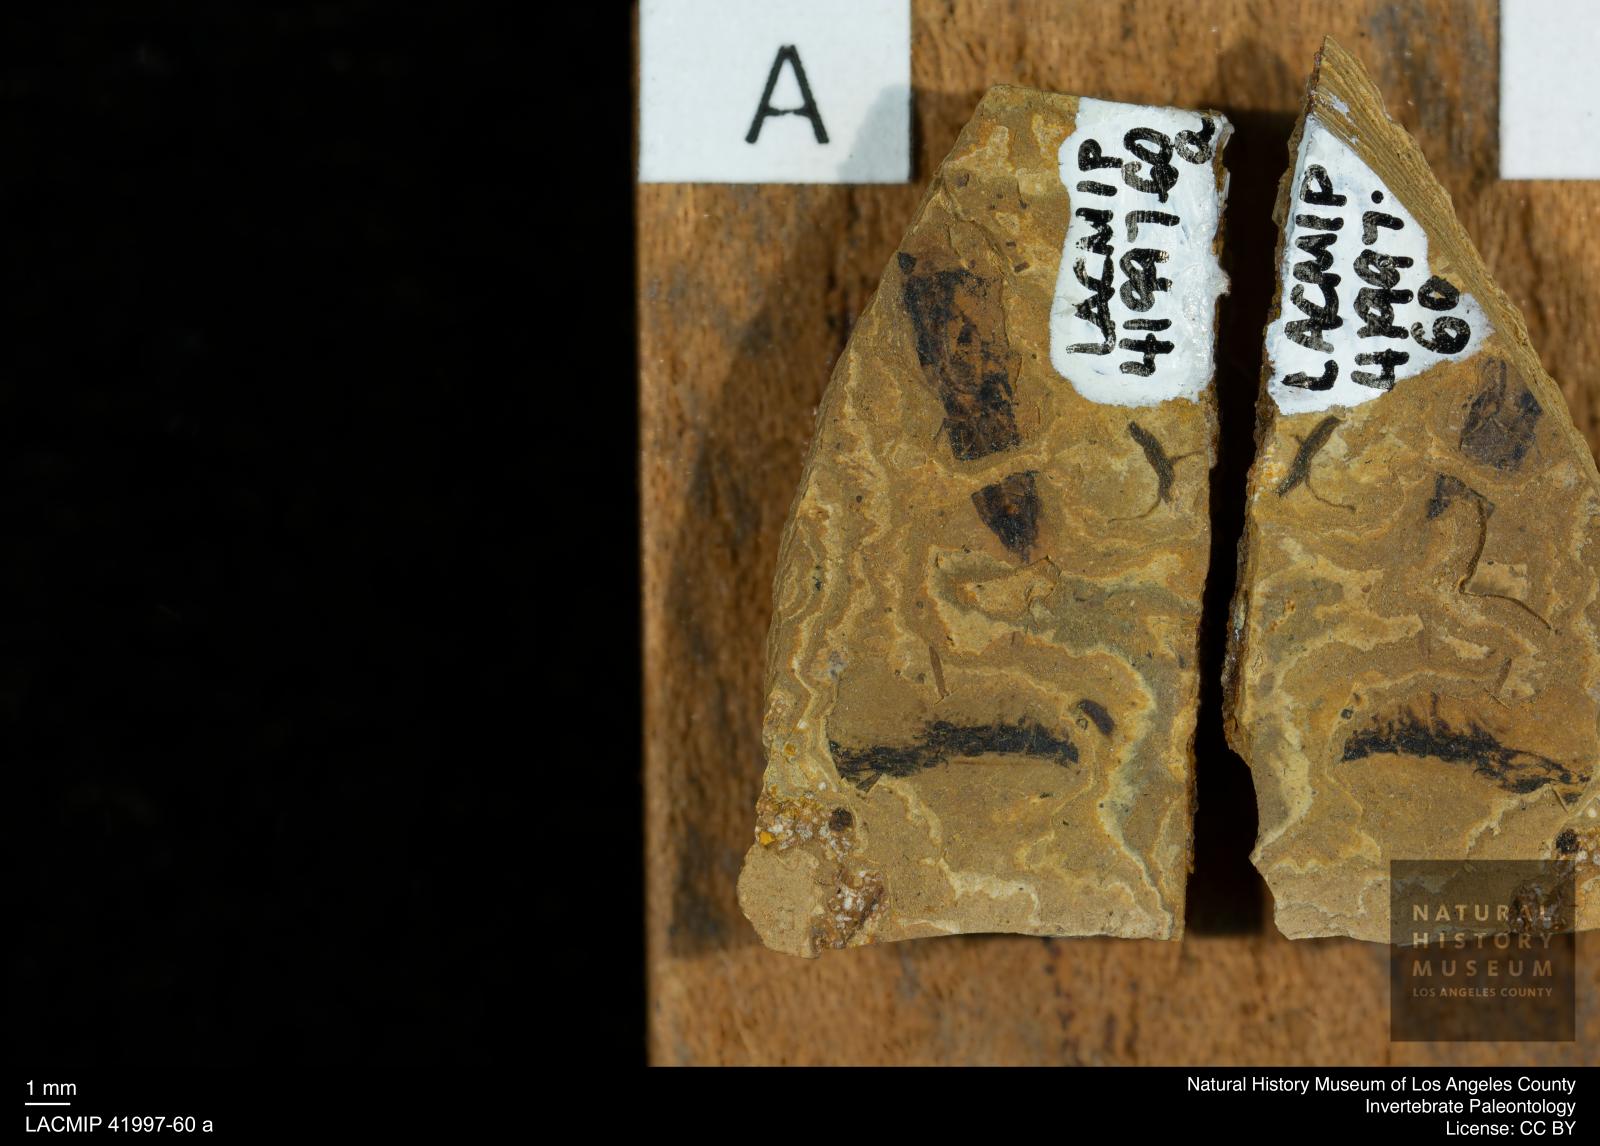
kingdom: Animalia
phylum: Arthropoda
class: Insecta
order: Hemiptera
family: Notonectidae
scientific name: Notonectidae
